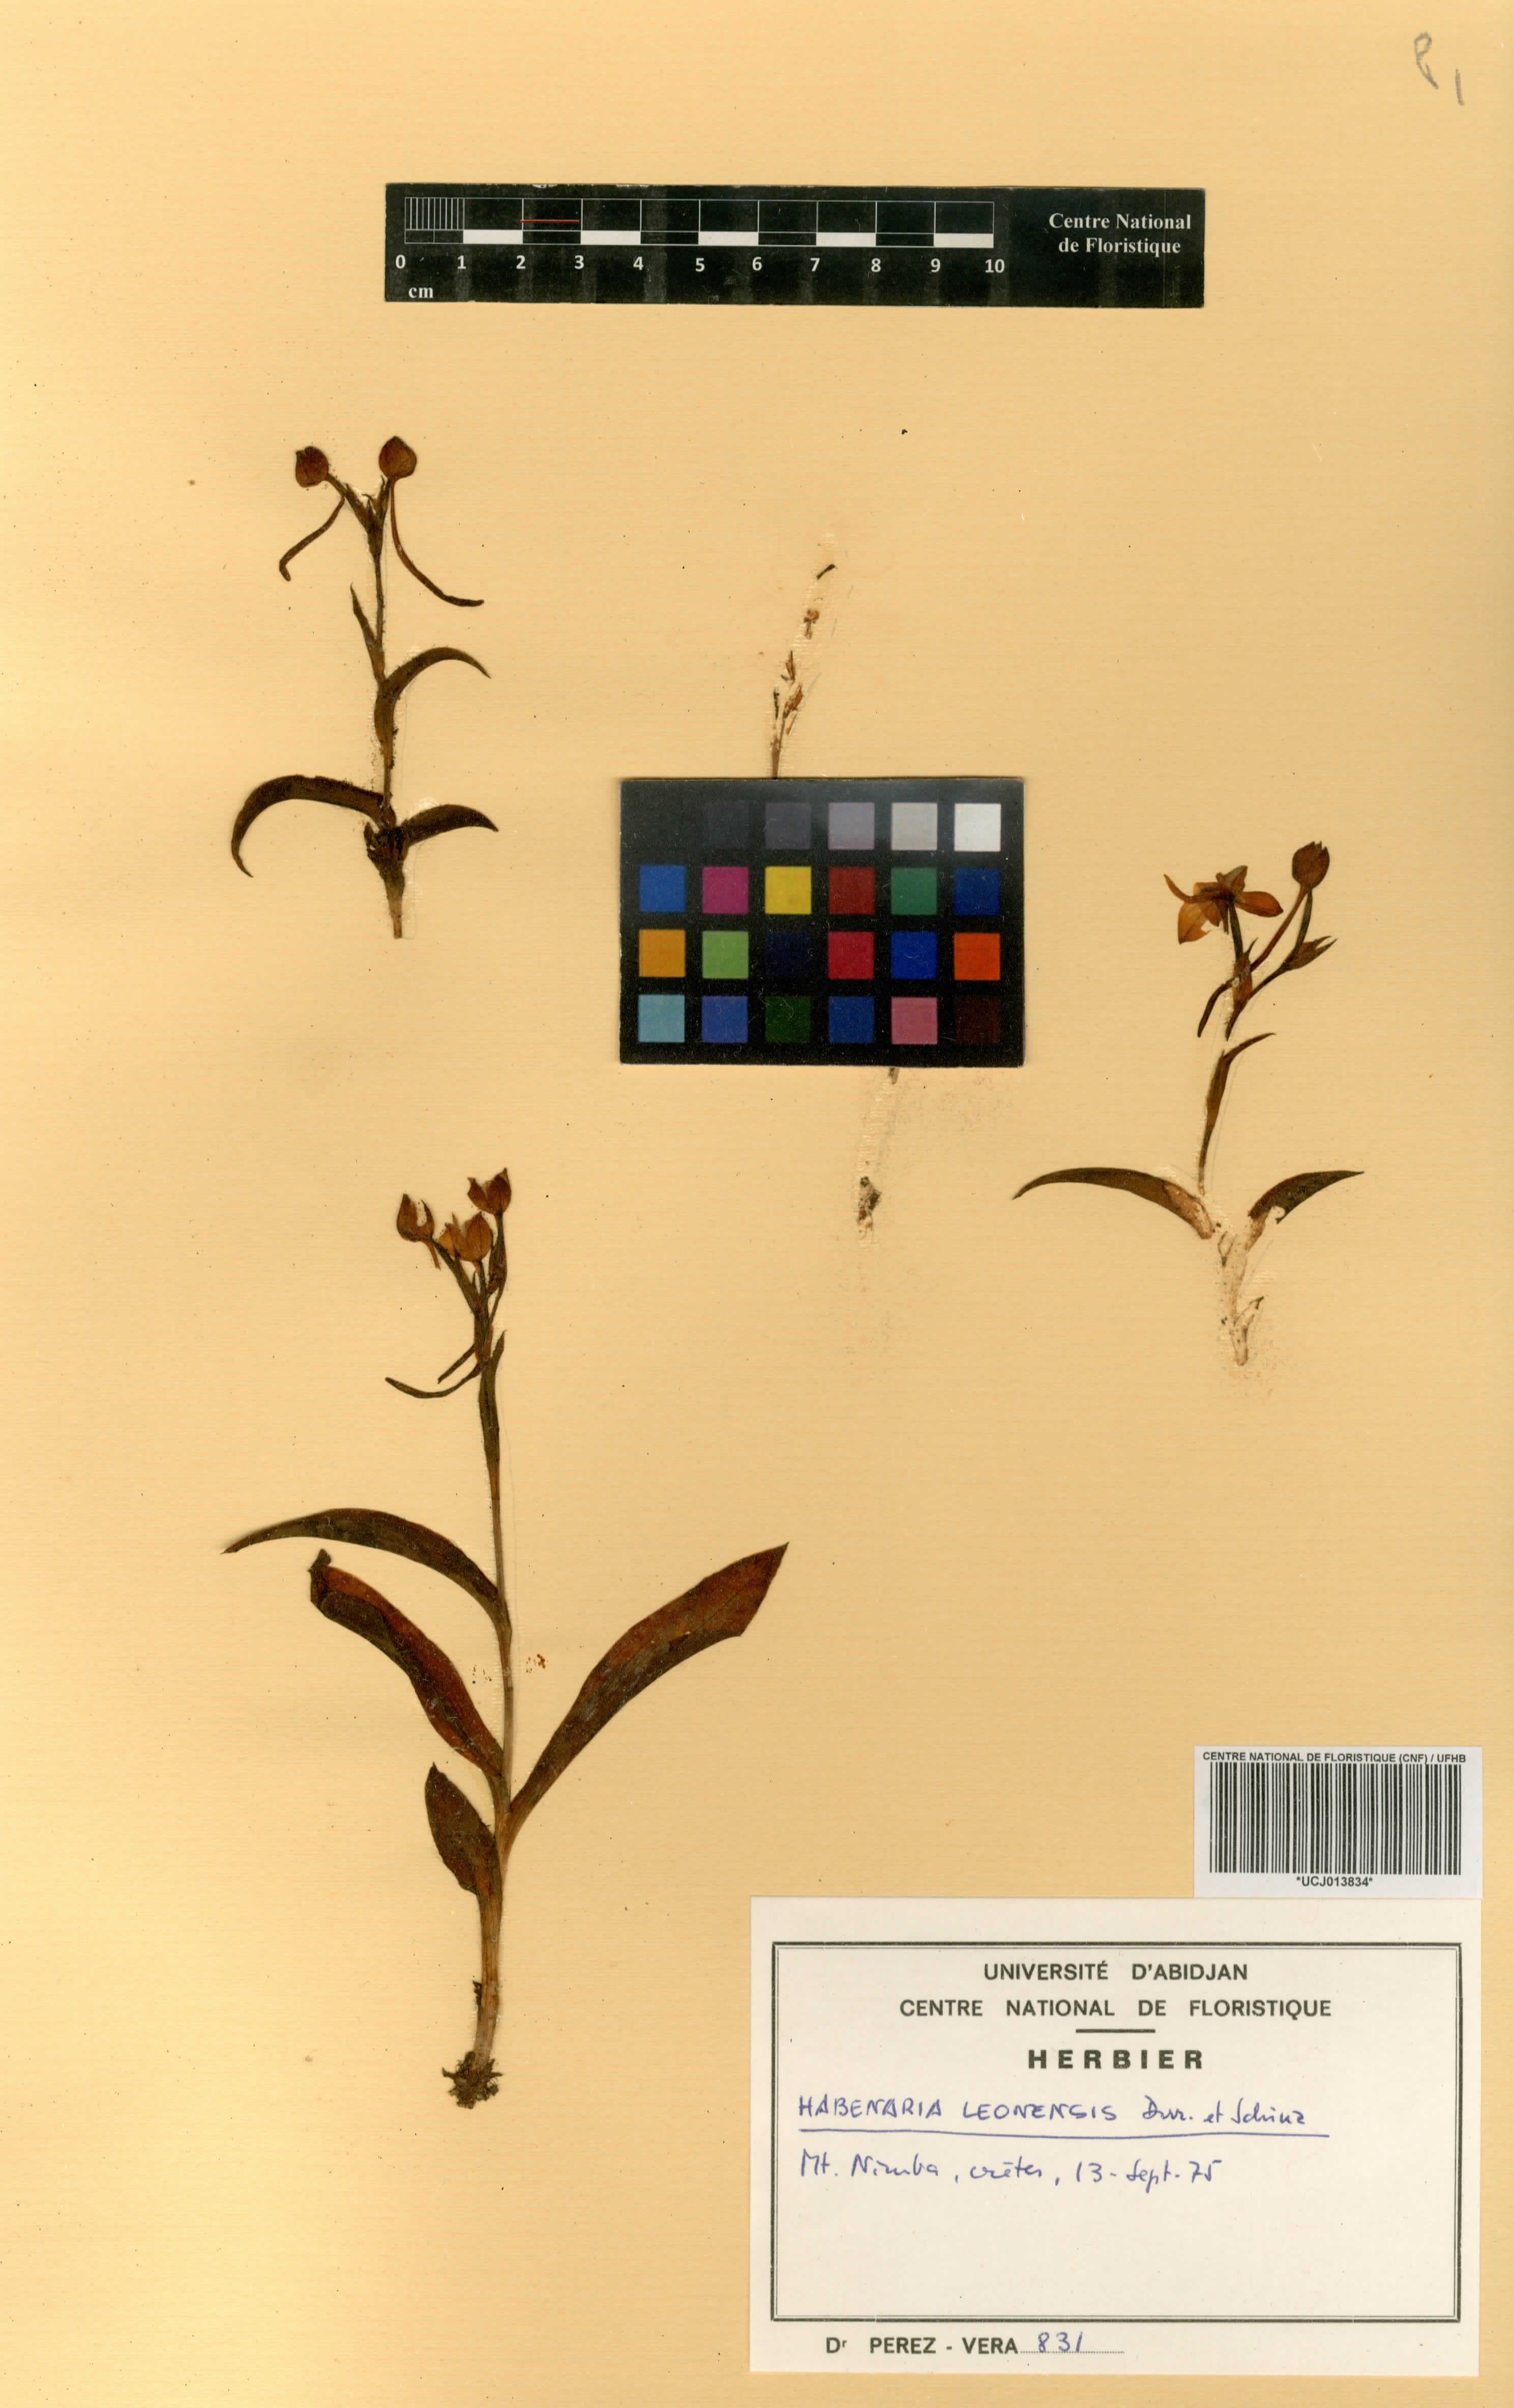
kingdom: Plantae
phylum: Tracheophyta
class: Liliopsida
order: Asparagales
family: Orchidaceae
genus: Habenaria
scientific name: Habenaria leonensis
